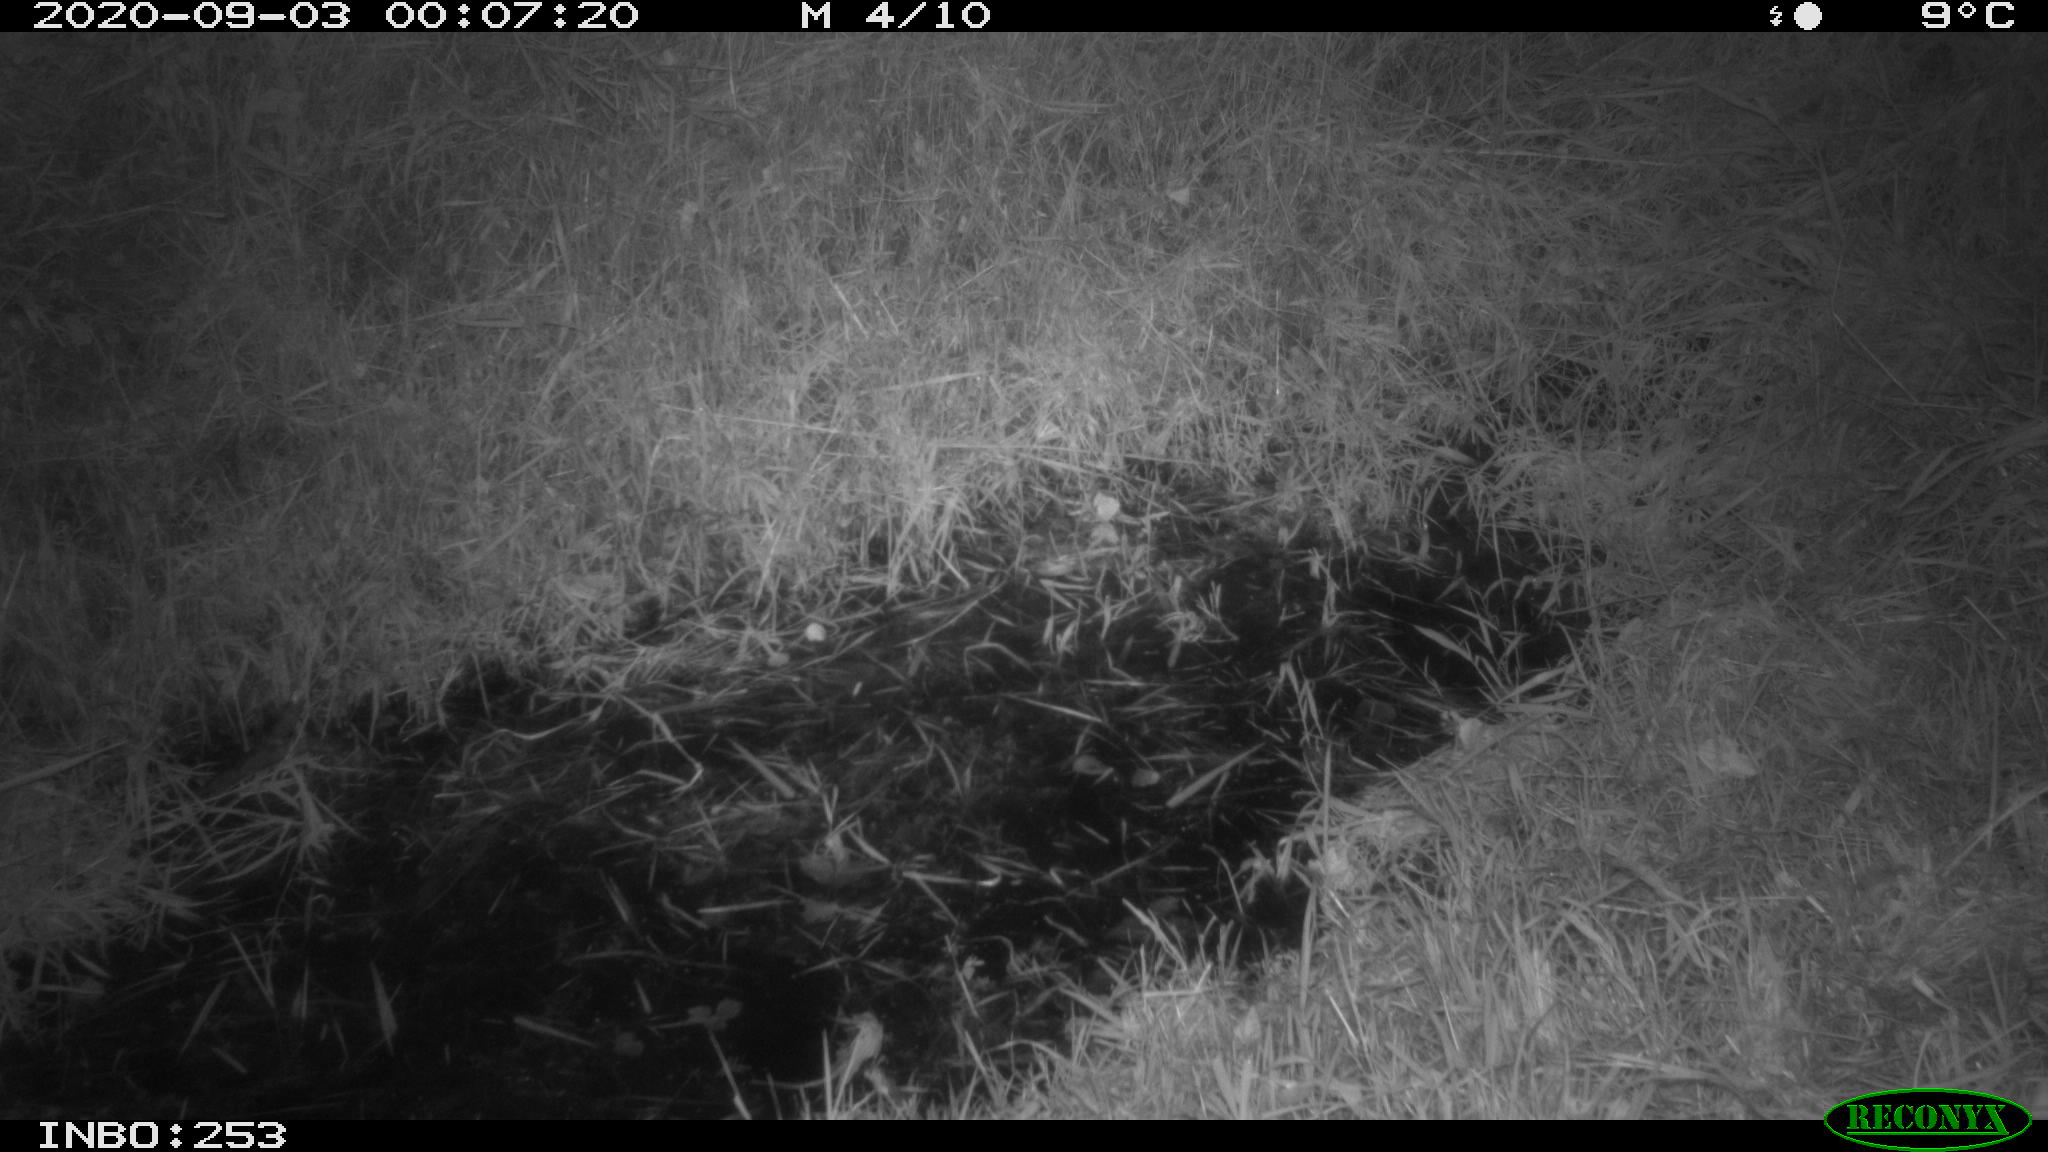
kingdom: Animalia
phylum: Chordata
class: Mammalia
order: Rodentia
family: Muridae
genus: Rattus
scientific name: Rattus norvegicus
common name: Brown rat
